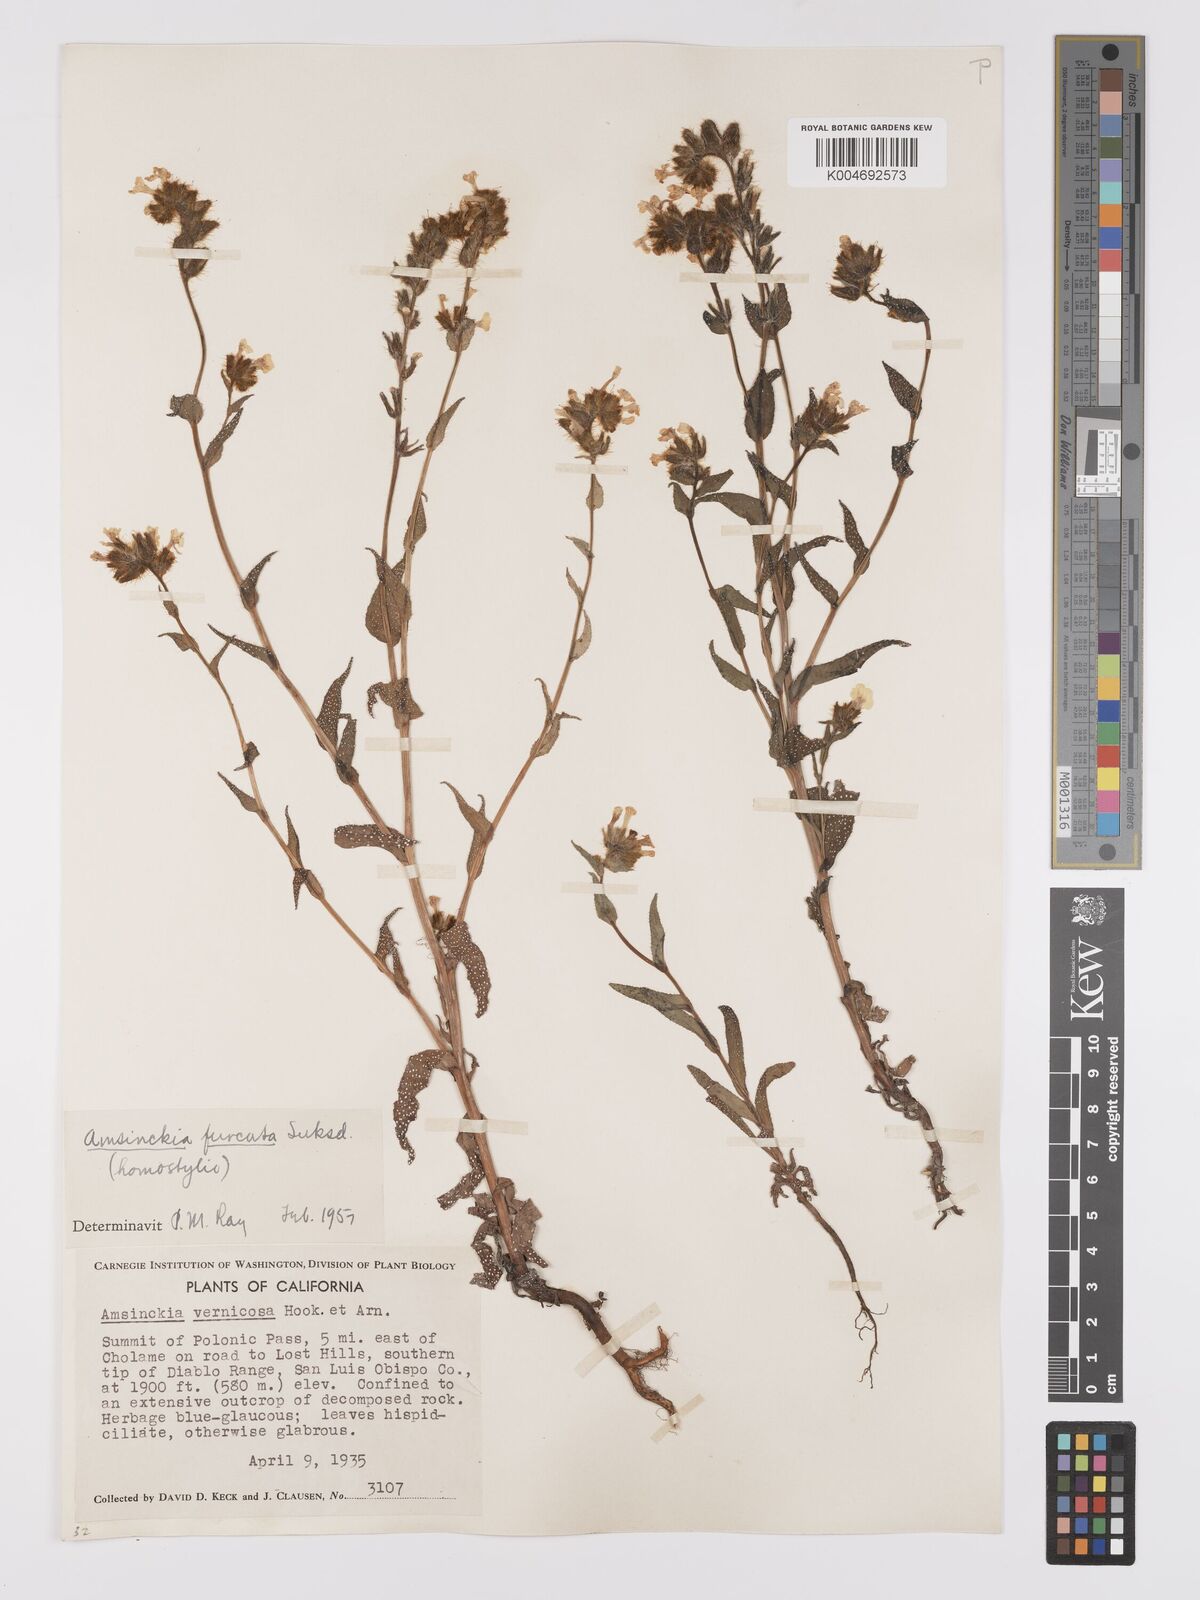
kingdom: Plantae
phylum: Tracheophyta
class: Magnoliopsida
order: Boraginales
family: Boraginaceae
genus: Amsinckia
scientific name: Amsinckia vernicosa
